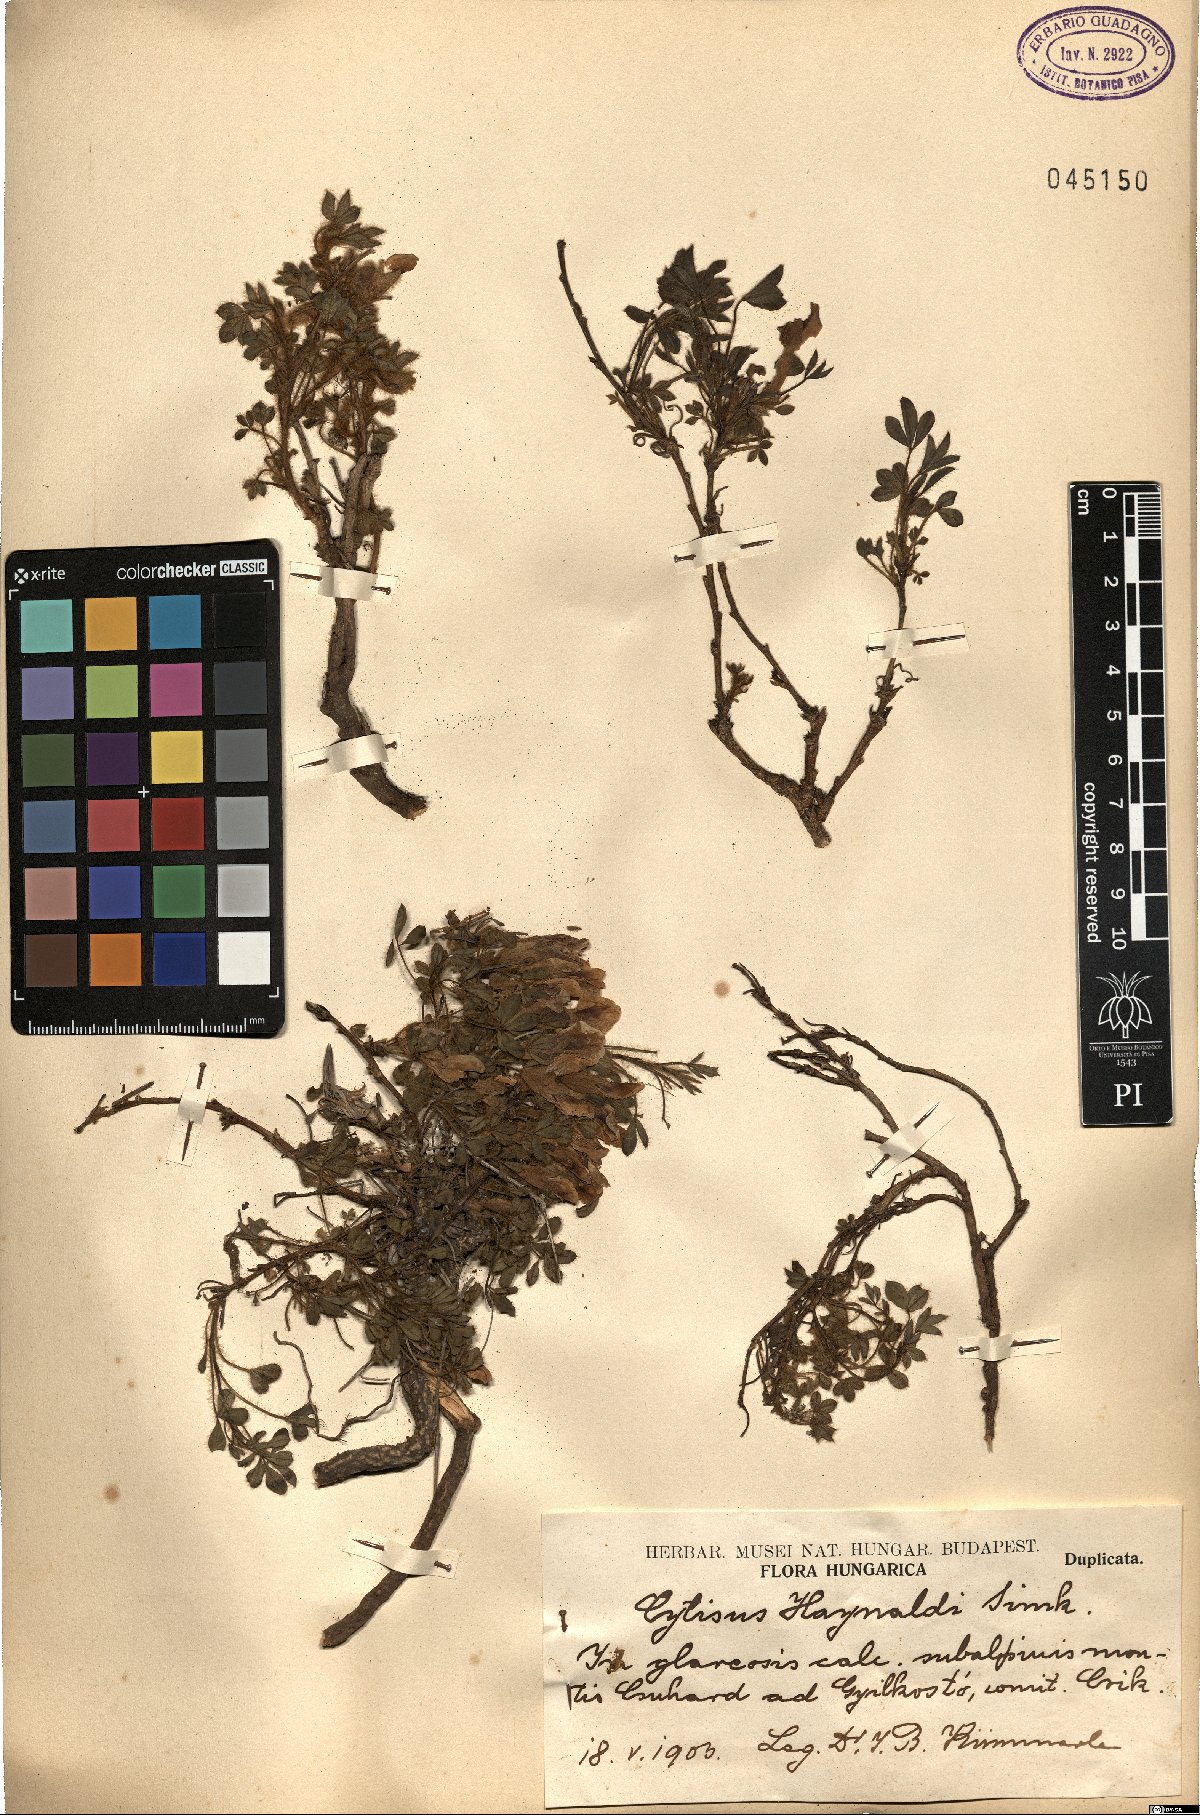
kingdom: Plantae
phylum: Tracheophyta
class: Magnoliopsida
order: Fabales
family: Fabaceae
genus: Chamaecytisus
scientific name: Chamaecytisus triflorus
